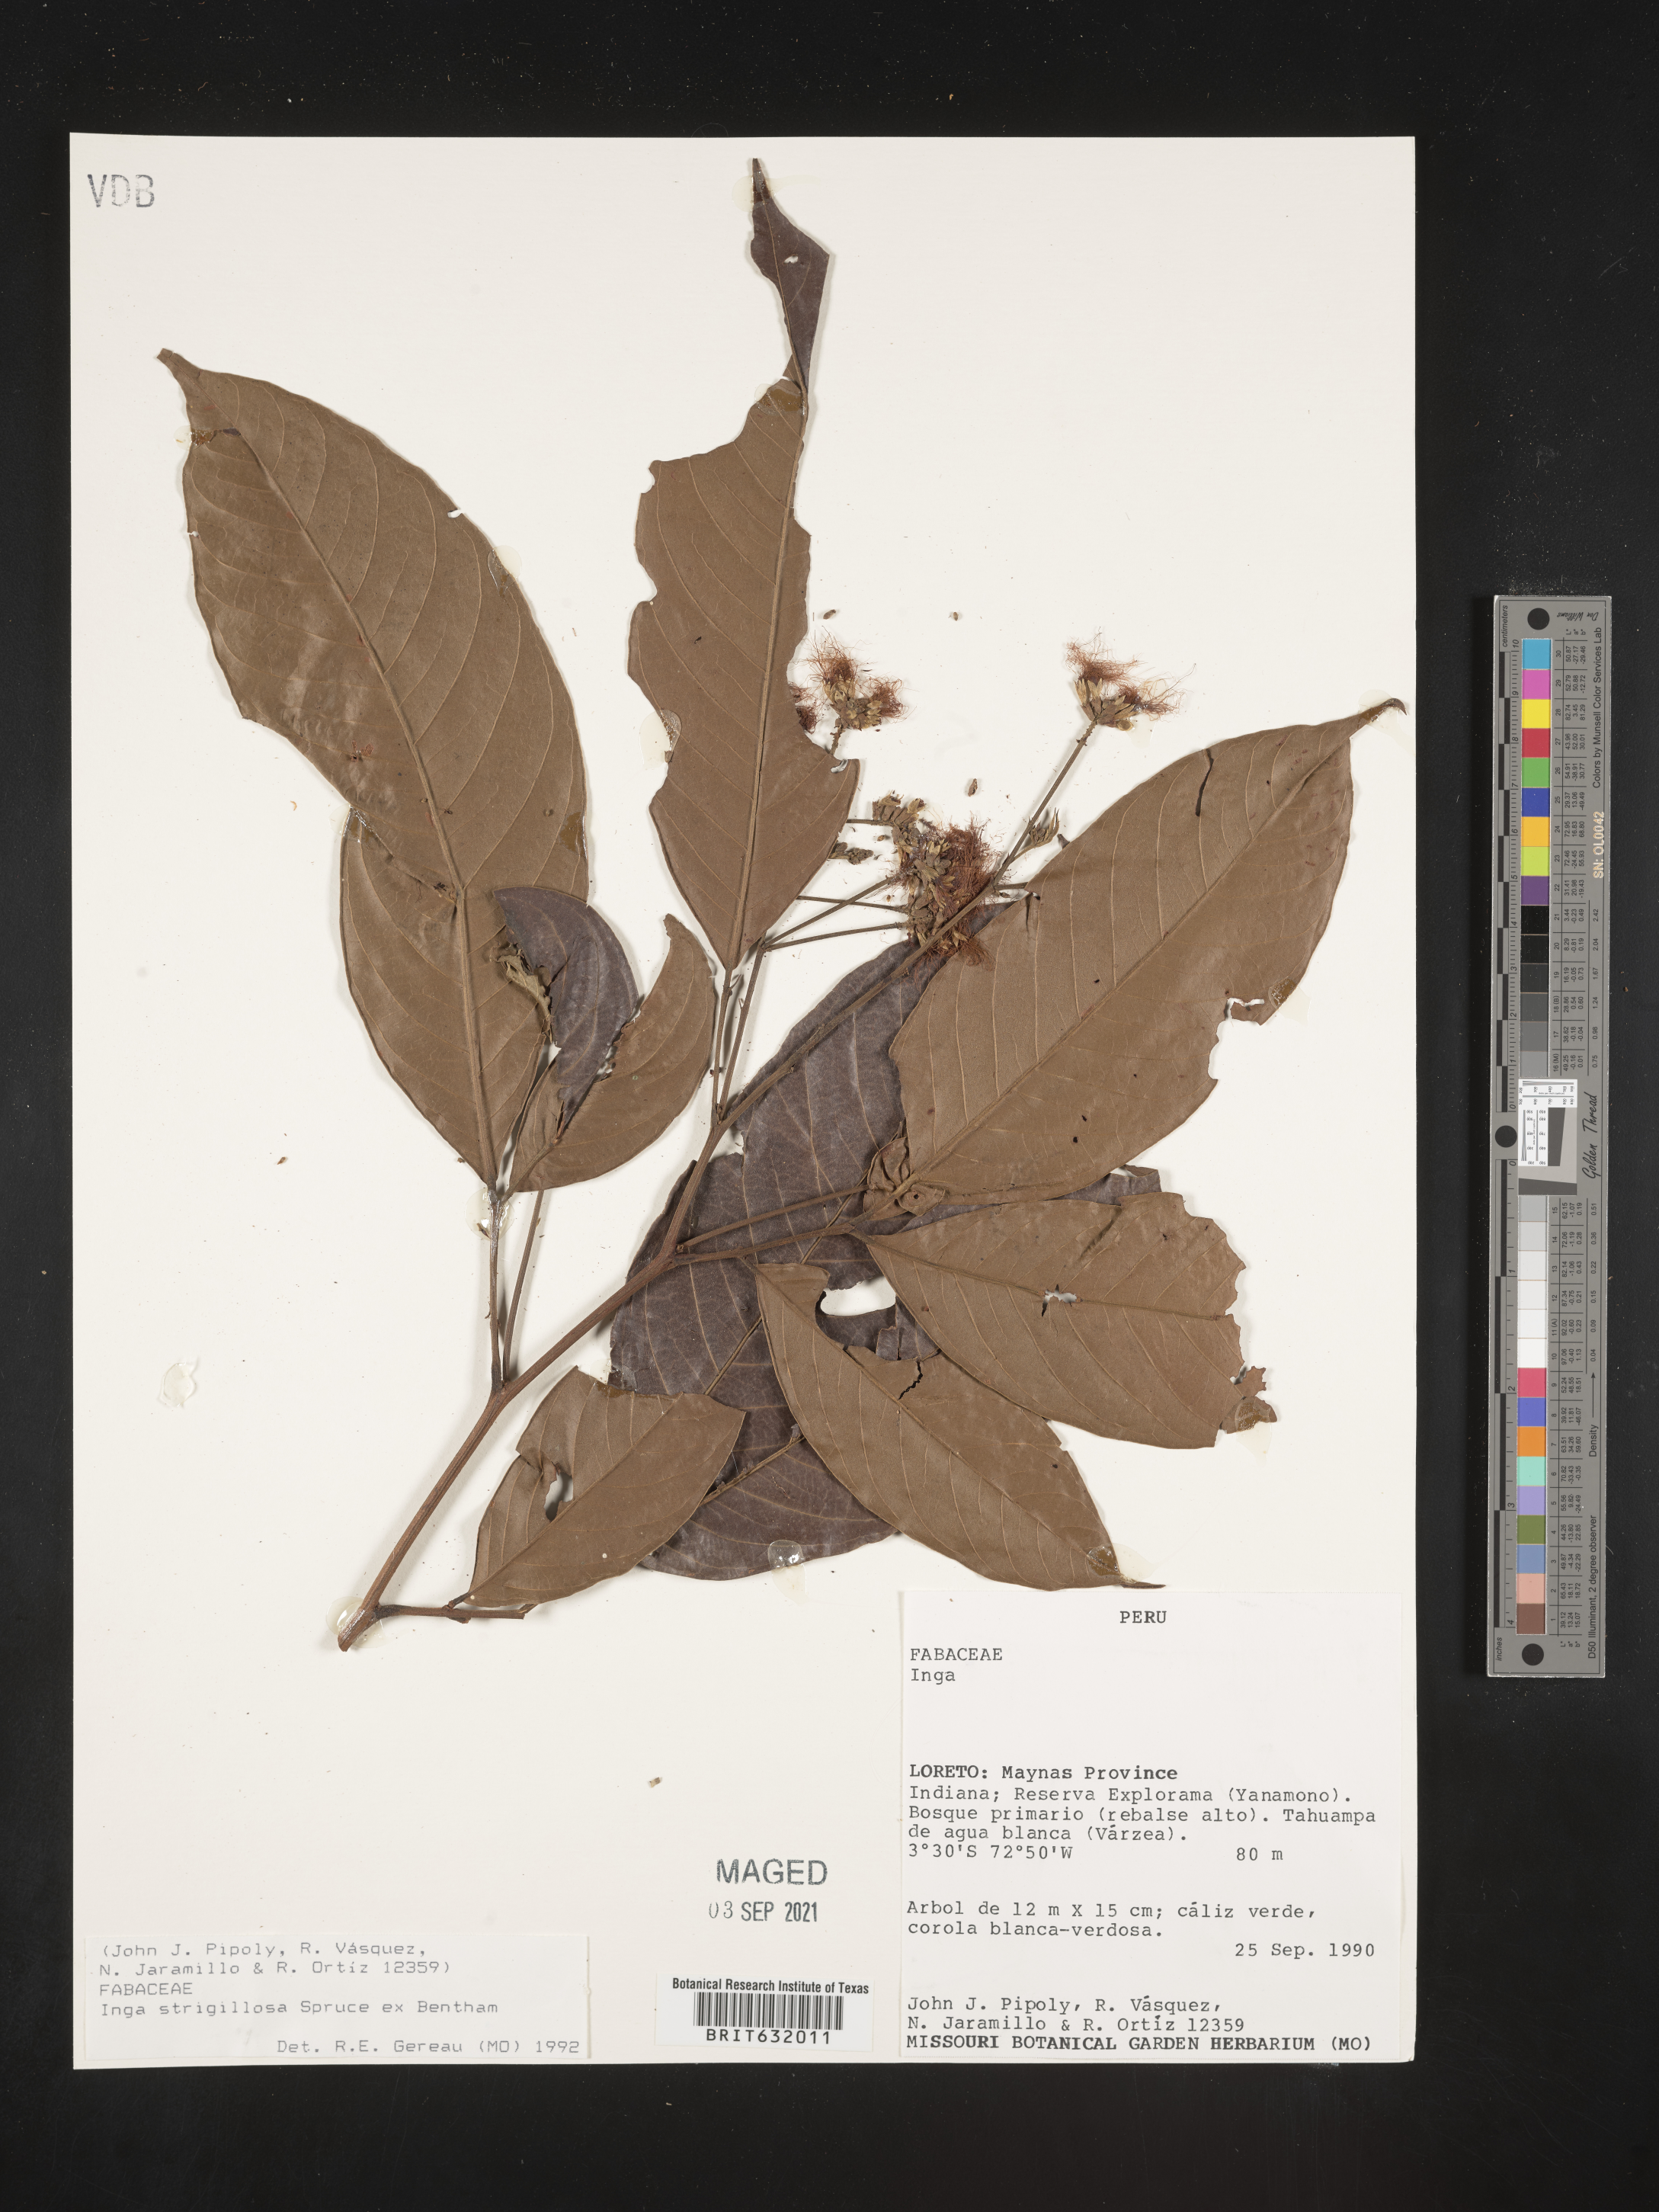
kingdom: Plantae
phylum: Tracheophyta
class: Magnoliopsida
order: Fabales
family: Fabaceae
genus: Inga
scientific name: Inga
